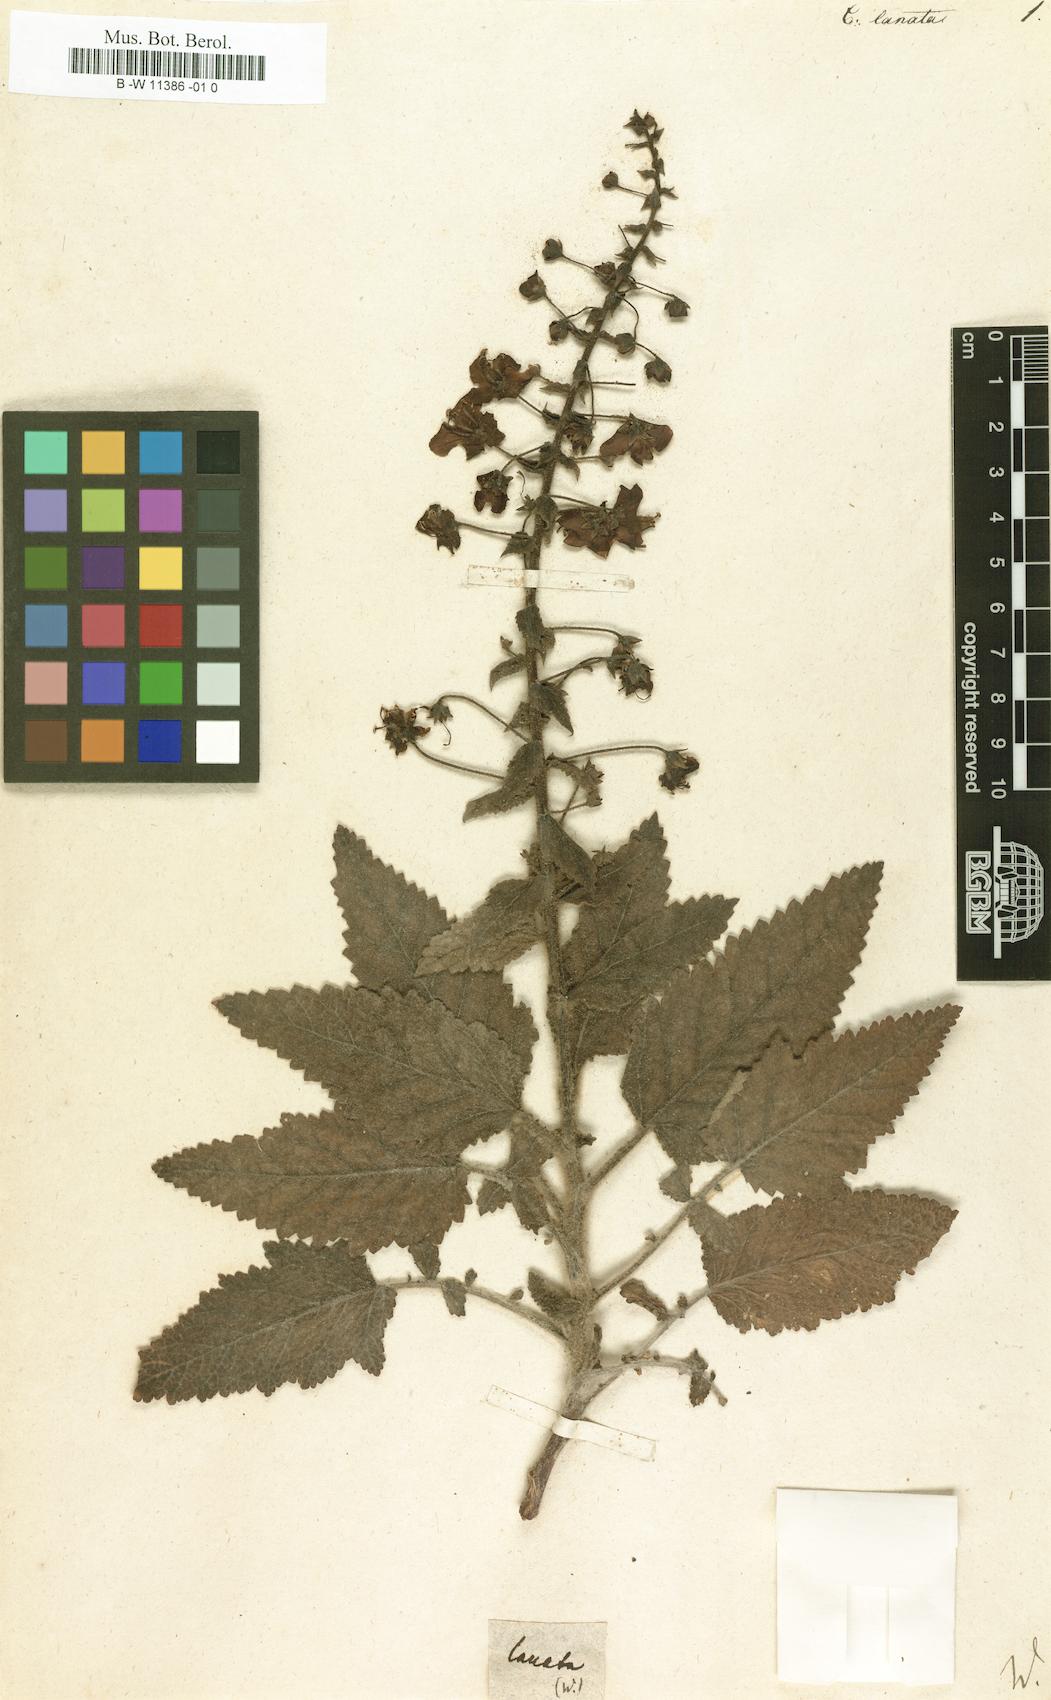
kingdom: Plantae
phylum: Tracheophyta
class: Magnoliopsida
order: Lamiales
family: Scrophulariaceae
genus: Verbascum
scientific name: Verbascum Celsia lanata
